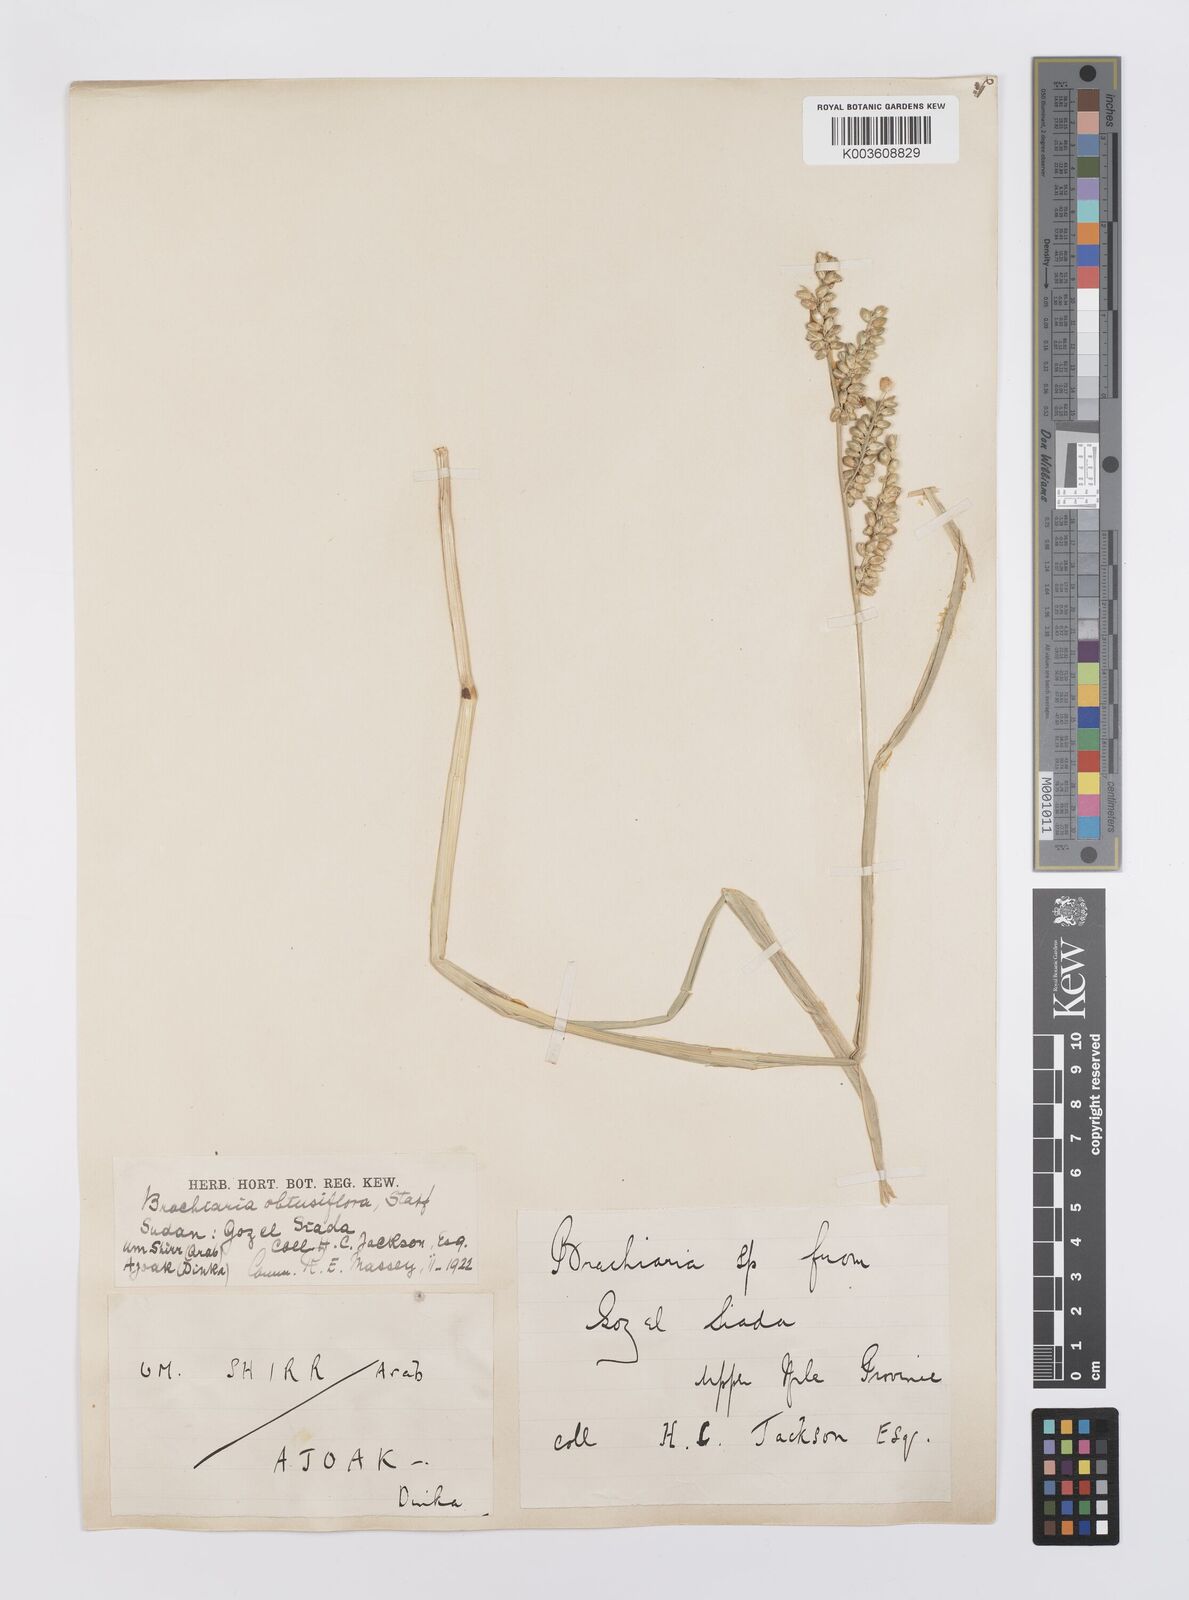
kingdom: Plantae
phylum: Tracheophyta
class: Liliopsida
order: Poales
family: Poaceae
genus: Echinochloa
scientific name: Echinochloa rotundiflora
